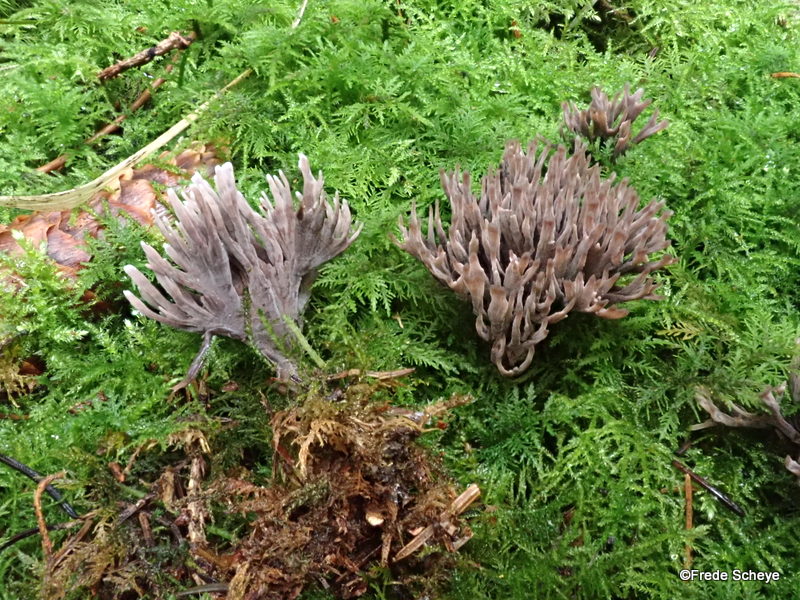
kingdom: Fungi
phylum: Basidiomycota
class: Agaricomycetes
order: Thelephorales
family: Thelephoraceae
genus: Thelephora
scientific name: Thelephora palmata
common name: grenet frynsesvamp
